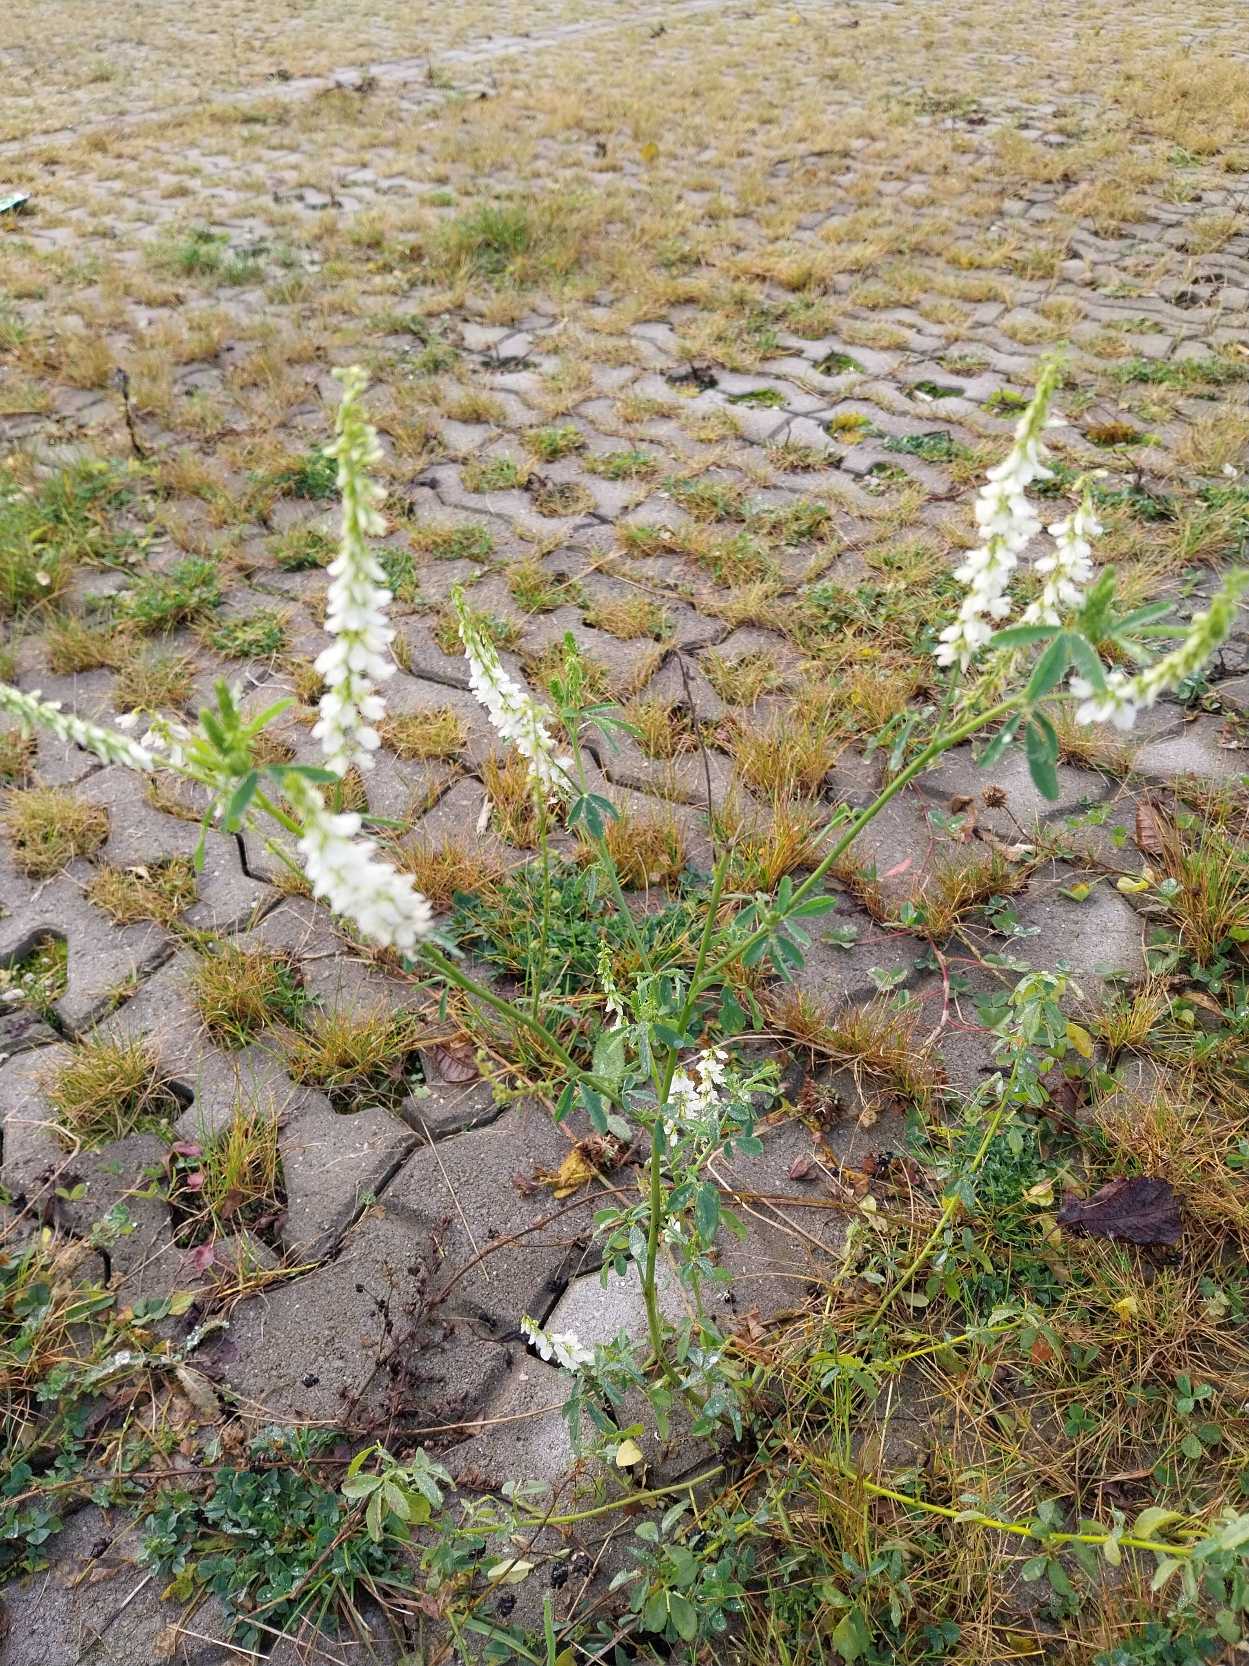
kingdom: Plantae
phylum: Tracheophyta
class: Magnoliopsida
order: Fabales
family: Fabaceae
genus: Melilotus
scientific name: Melilotus albus
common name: Hvid stenkløver
